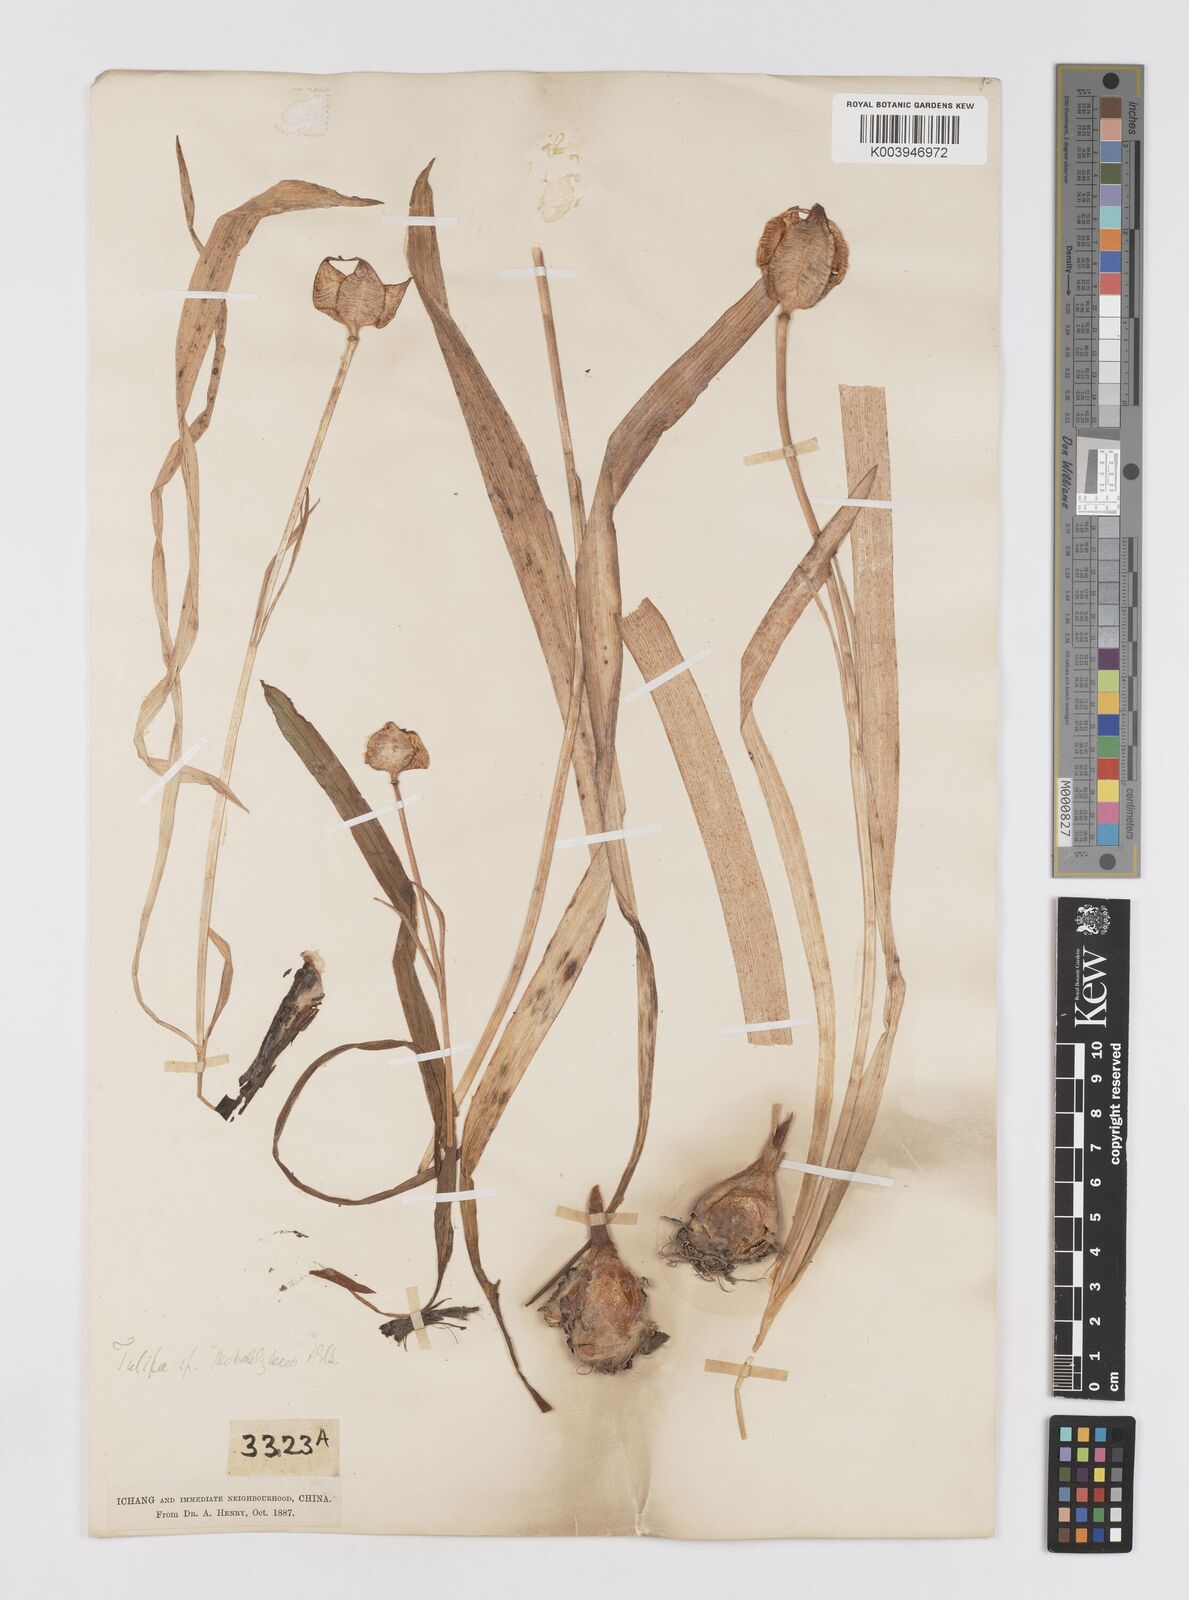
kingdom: Plantae
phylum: Tracheophyta
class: Liliopsida
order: Liliales
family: Liliaceae
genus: Amana
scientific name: Amana edulis
